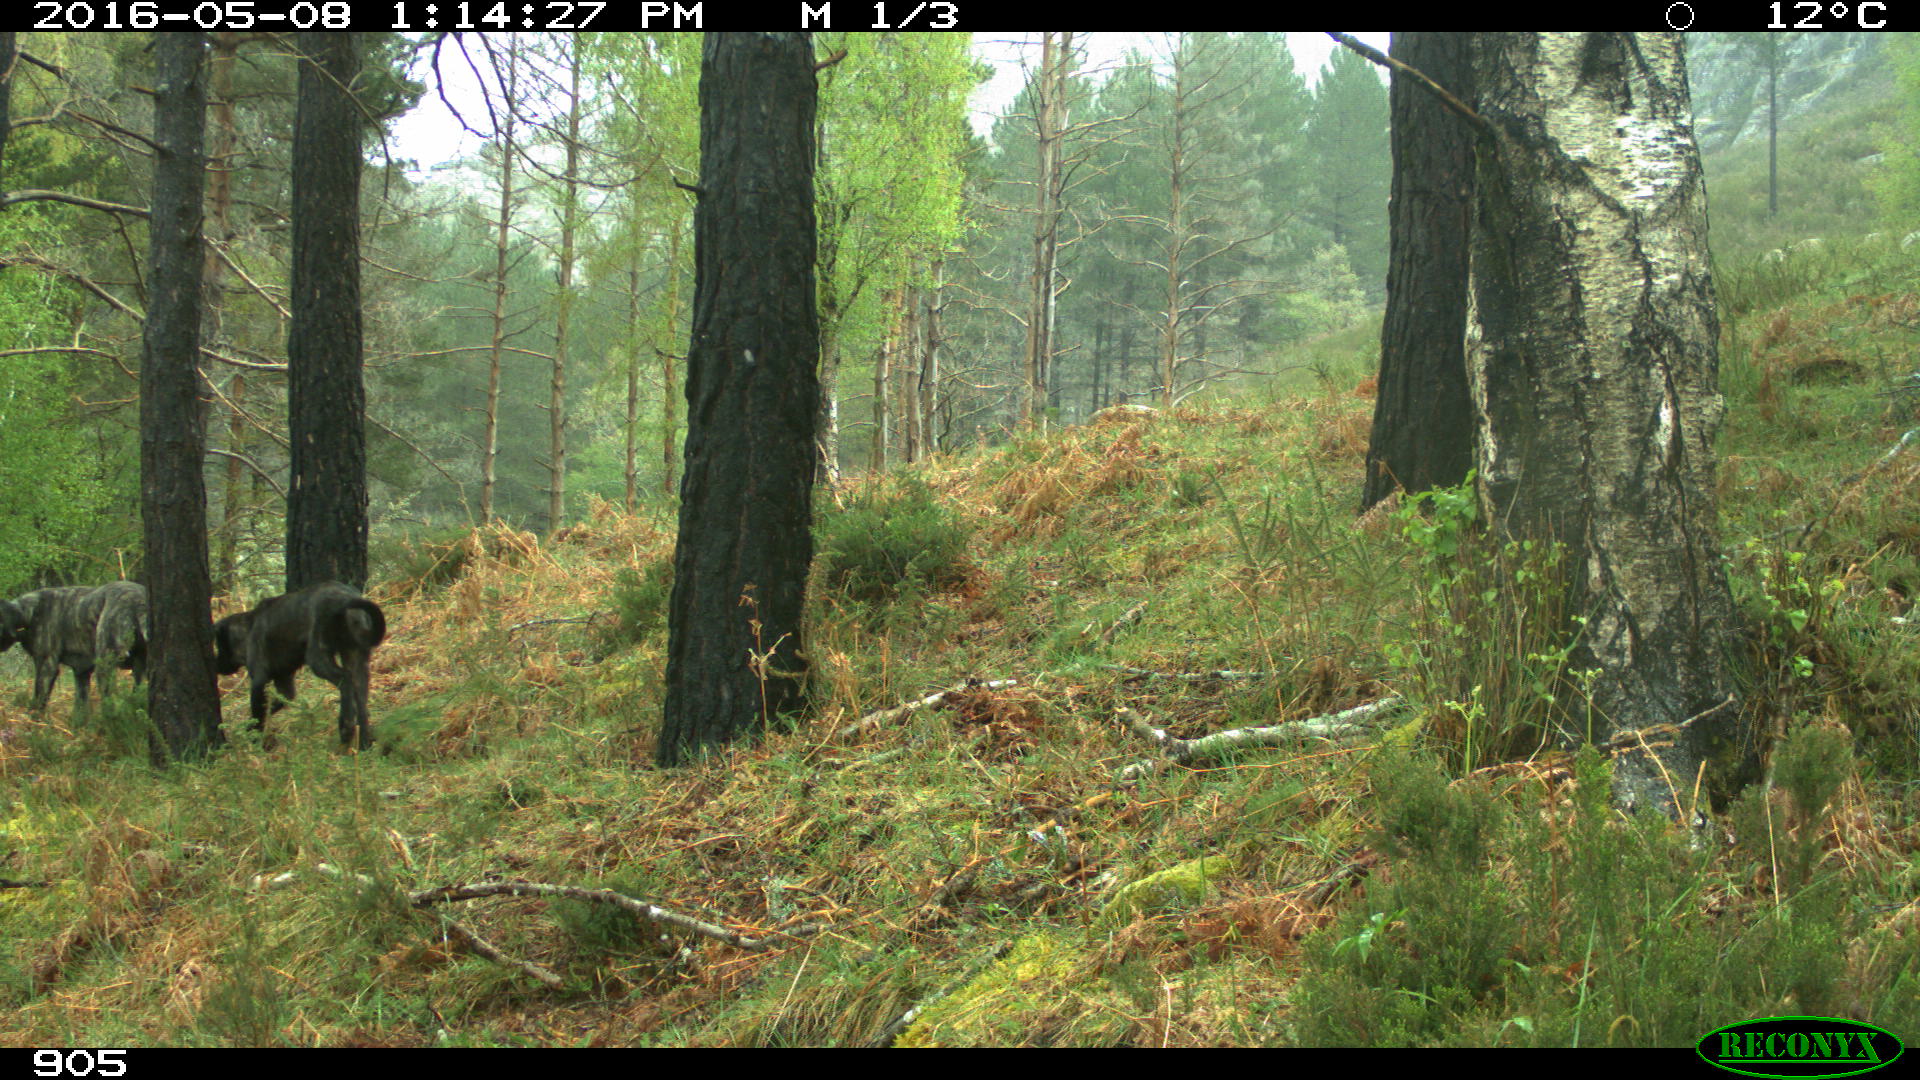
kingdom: Animalia
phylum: Chordata
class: Mammalia
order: Carnivora
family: Canidae
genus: Canis
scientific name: Canis lupus
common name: Gray wolf
